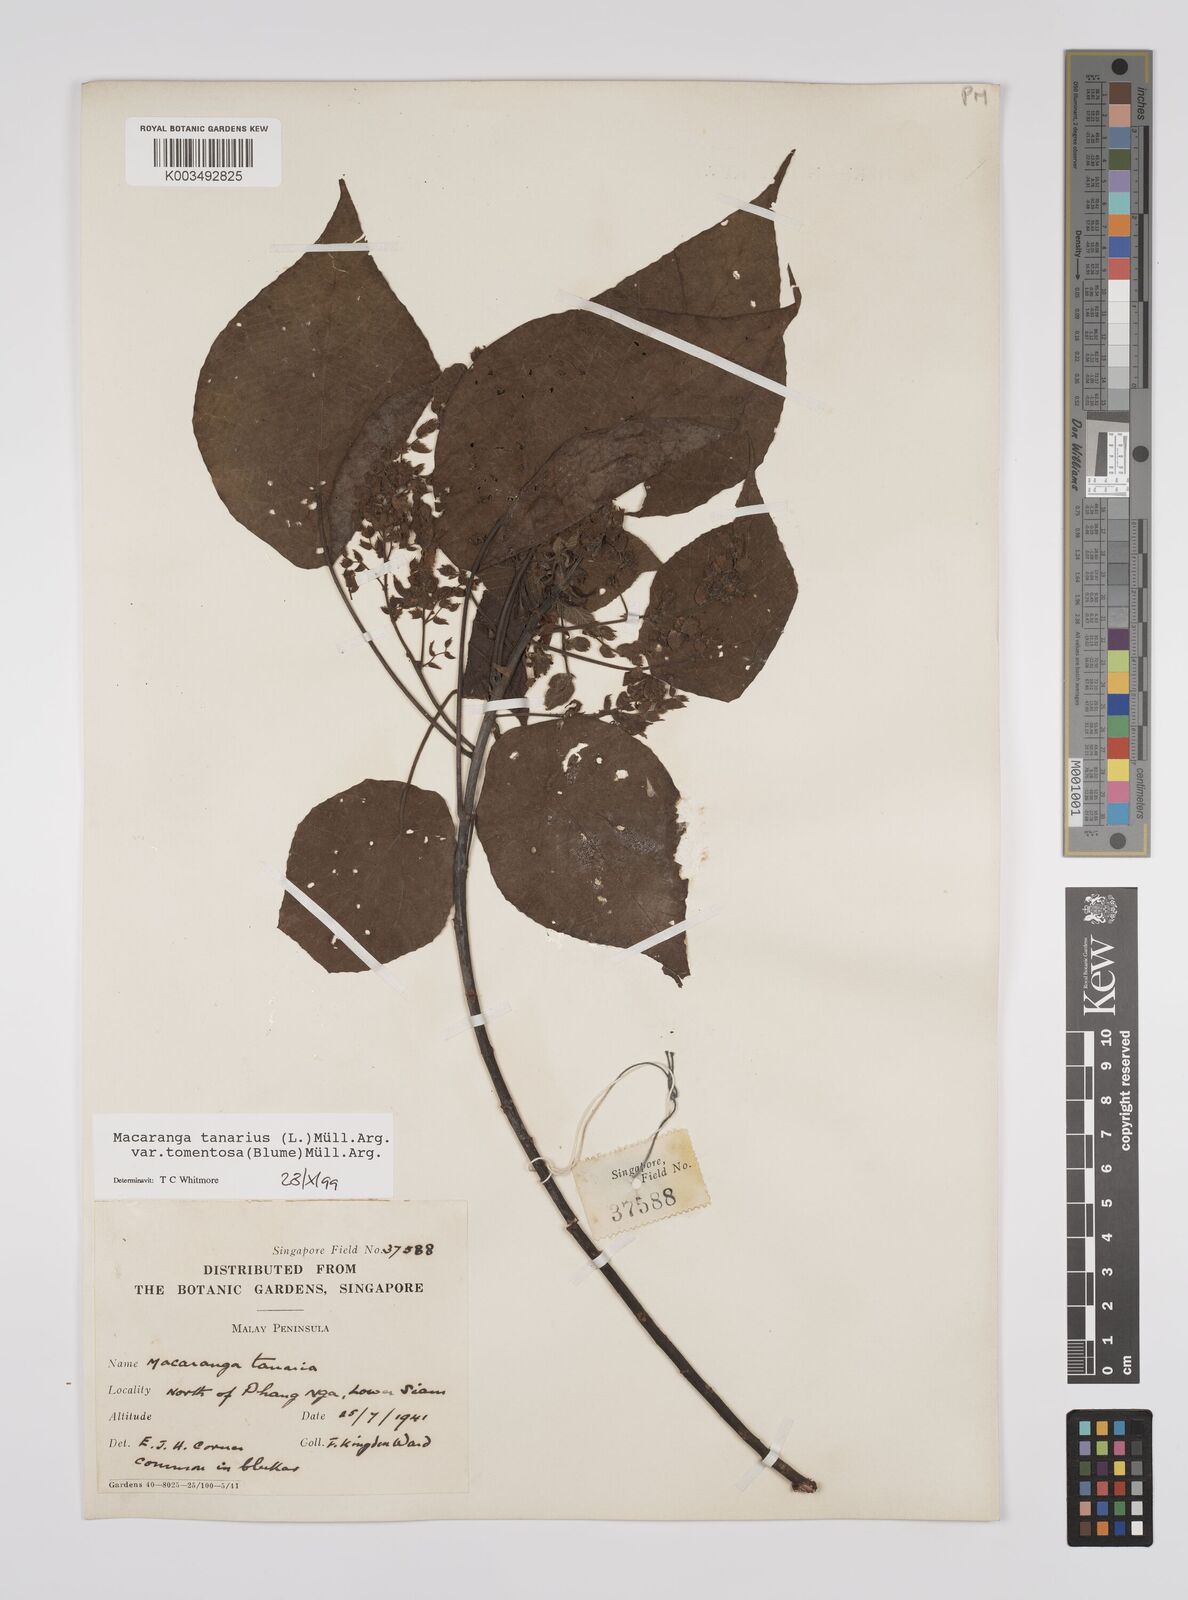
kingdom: Plantae
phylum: Tracheophyta
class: Magnoliopsida
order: Malpighiales
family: Euphorbiaceae
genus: Macaranga
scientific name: Macaranga tanarius
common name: Parasol leaf tree
